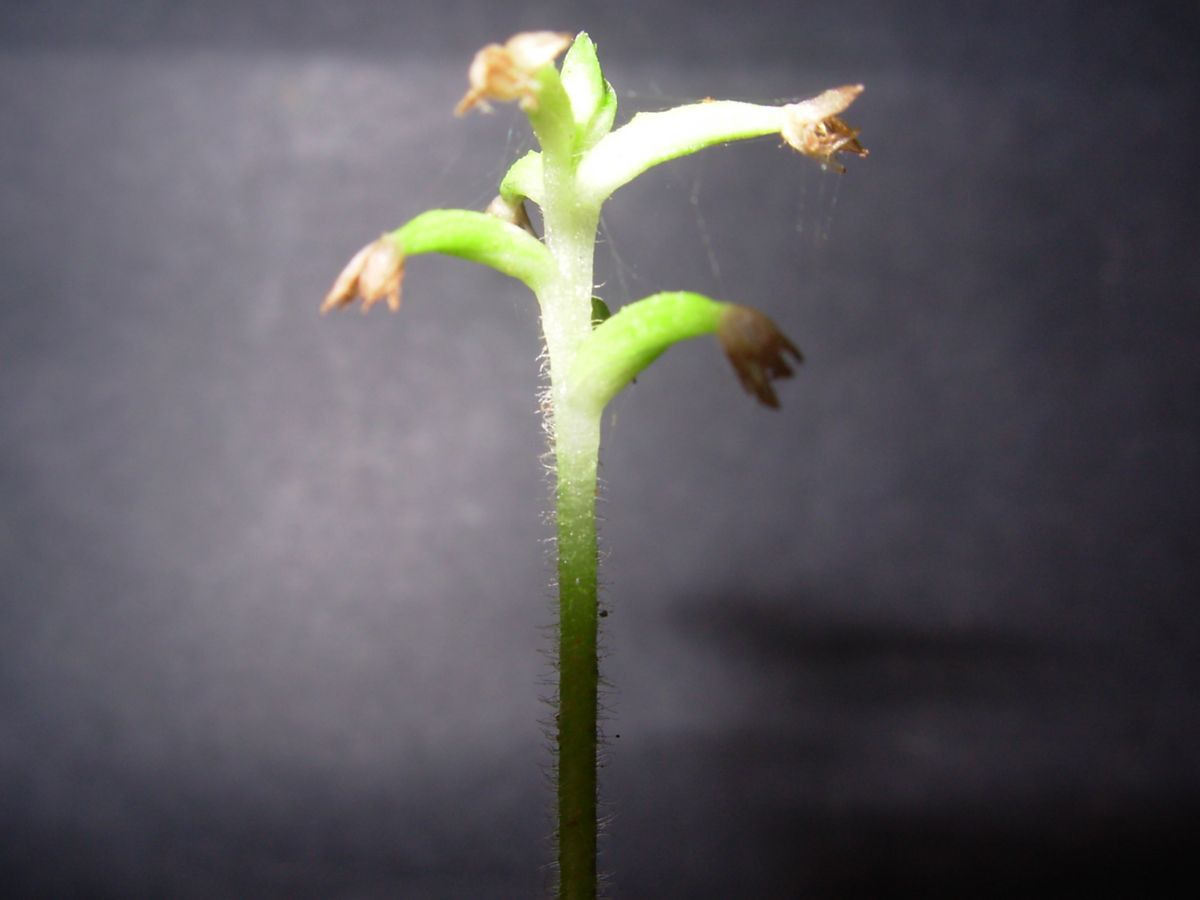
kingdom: Plantae
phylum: Tracheophyta
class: Liliopsida
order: Asparagales
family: Orchidaceae
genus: Cranichis
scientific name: Cranichis hieroglyphica
